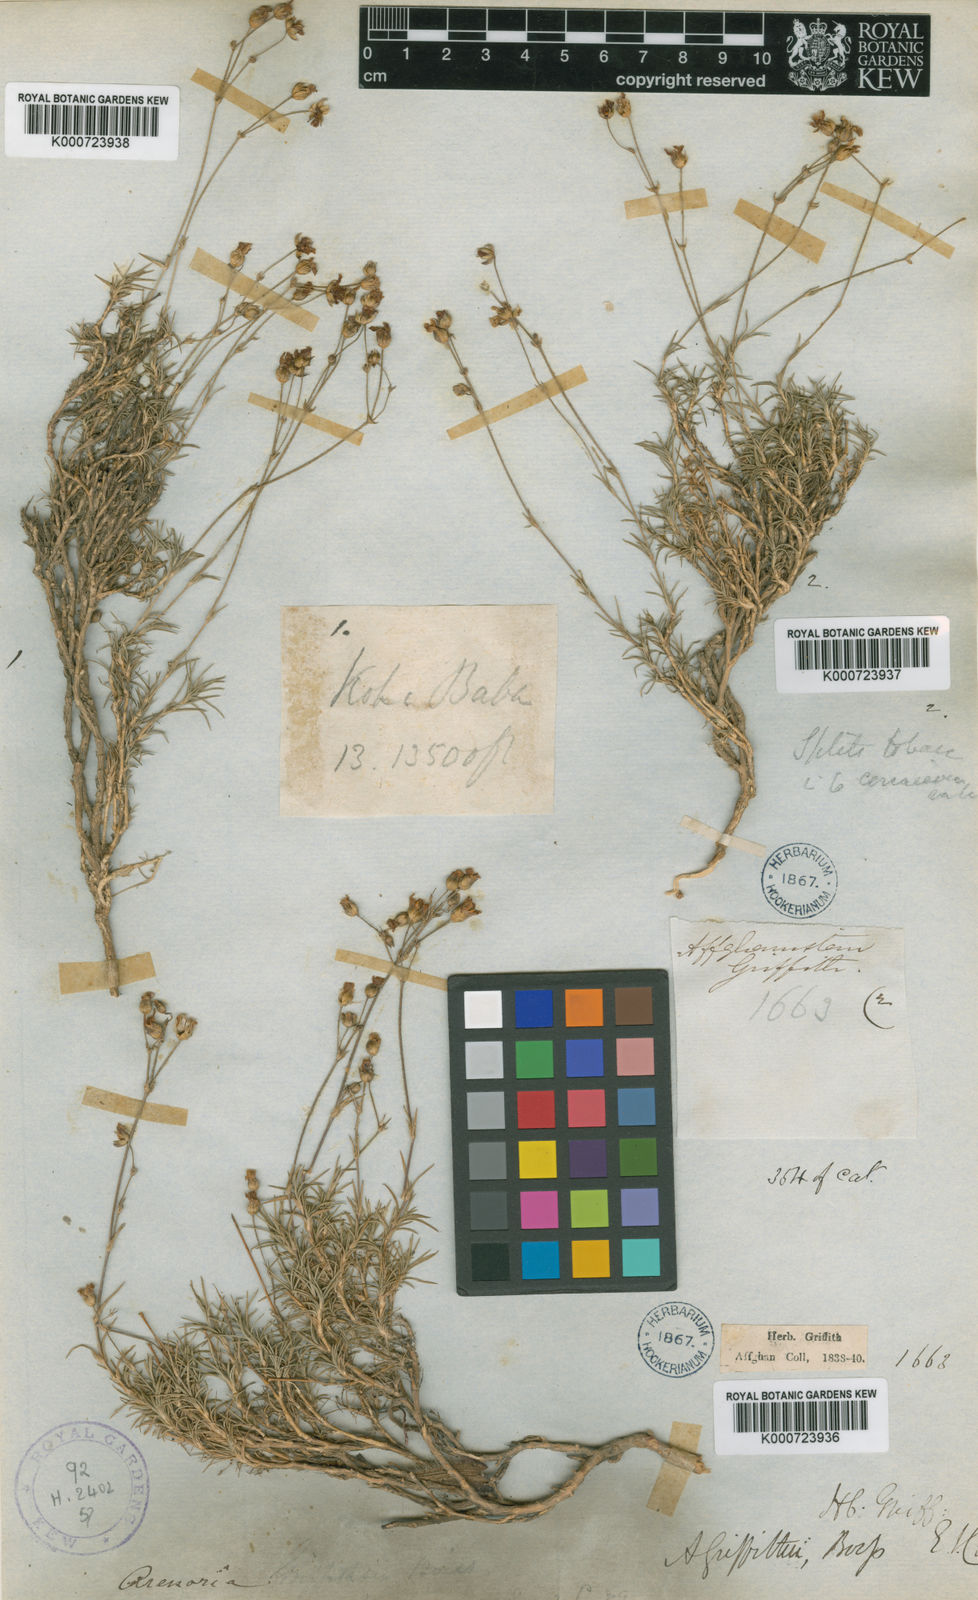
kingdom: Plantae
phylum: Tracheophyta
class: Magnoliopsida
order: Caryophyllales
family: Caryophyllaceae
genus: Eremogone
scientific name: Eremogone griffithii
